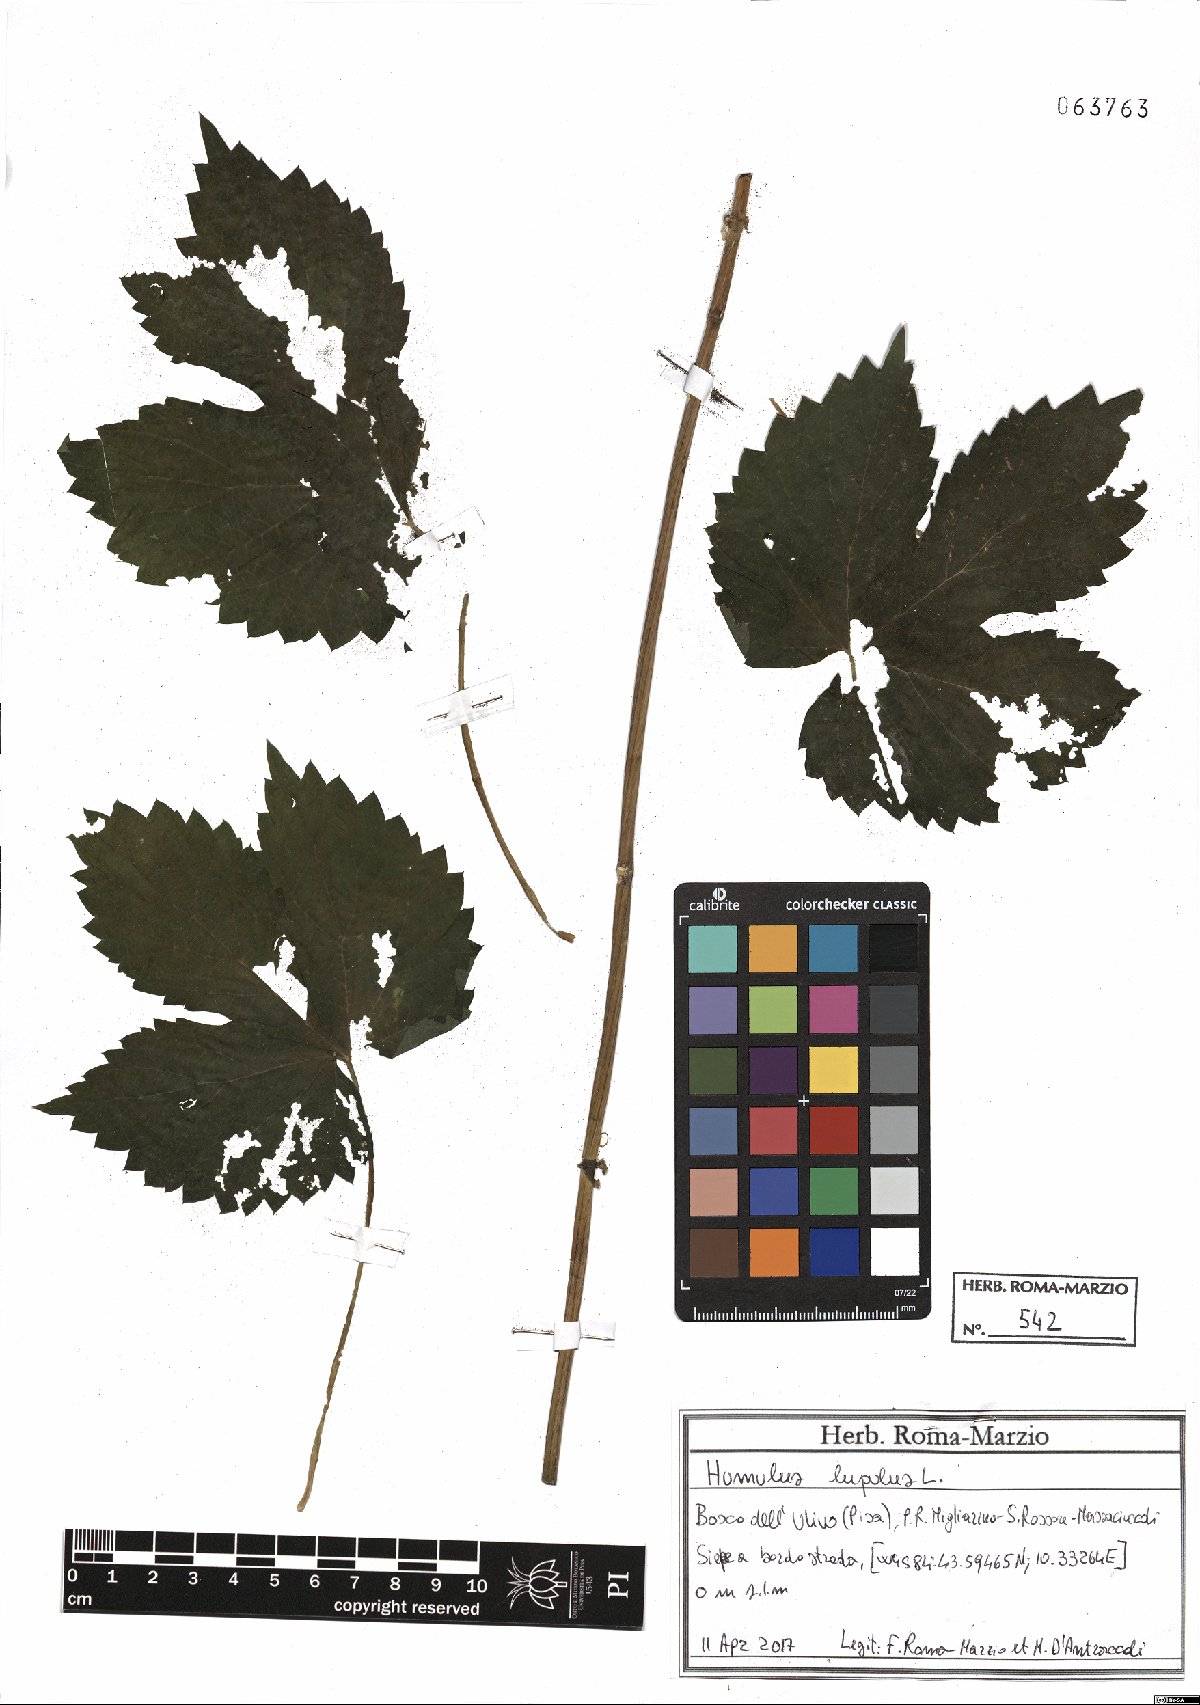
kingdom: Plantae
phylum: Tracheophyta
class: Magnoliopsida
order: Rosales
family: Cannabaceae
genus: Humulus
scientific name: Humulus lupulus
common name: Hop
